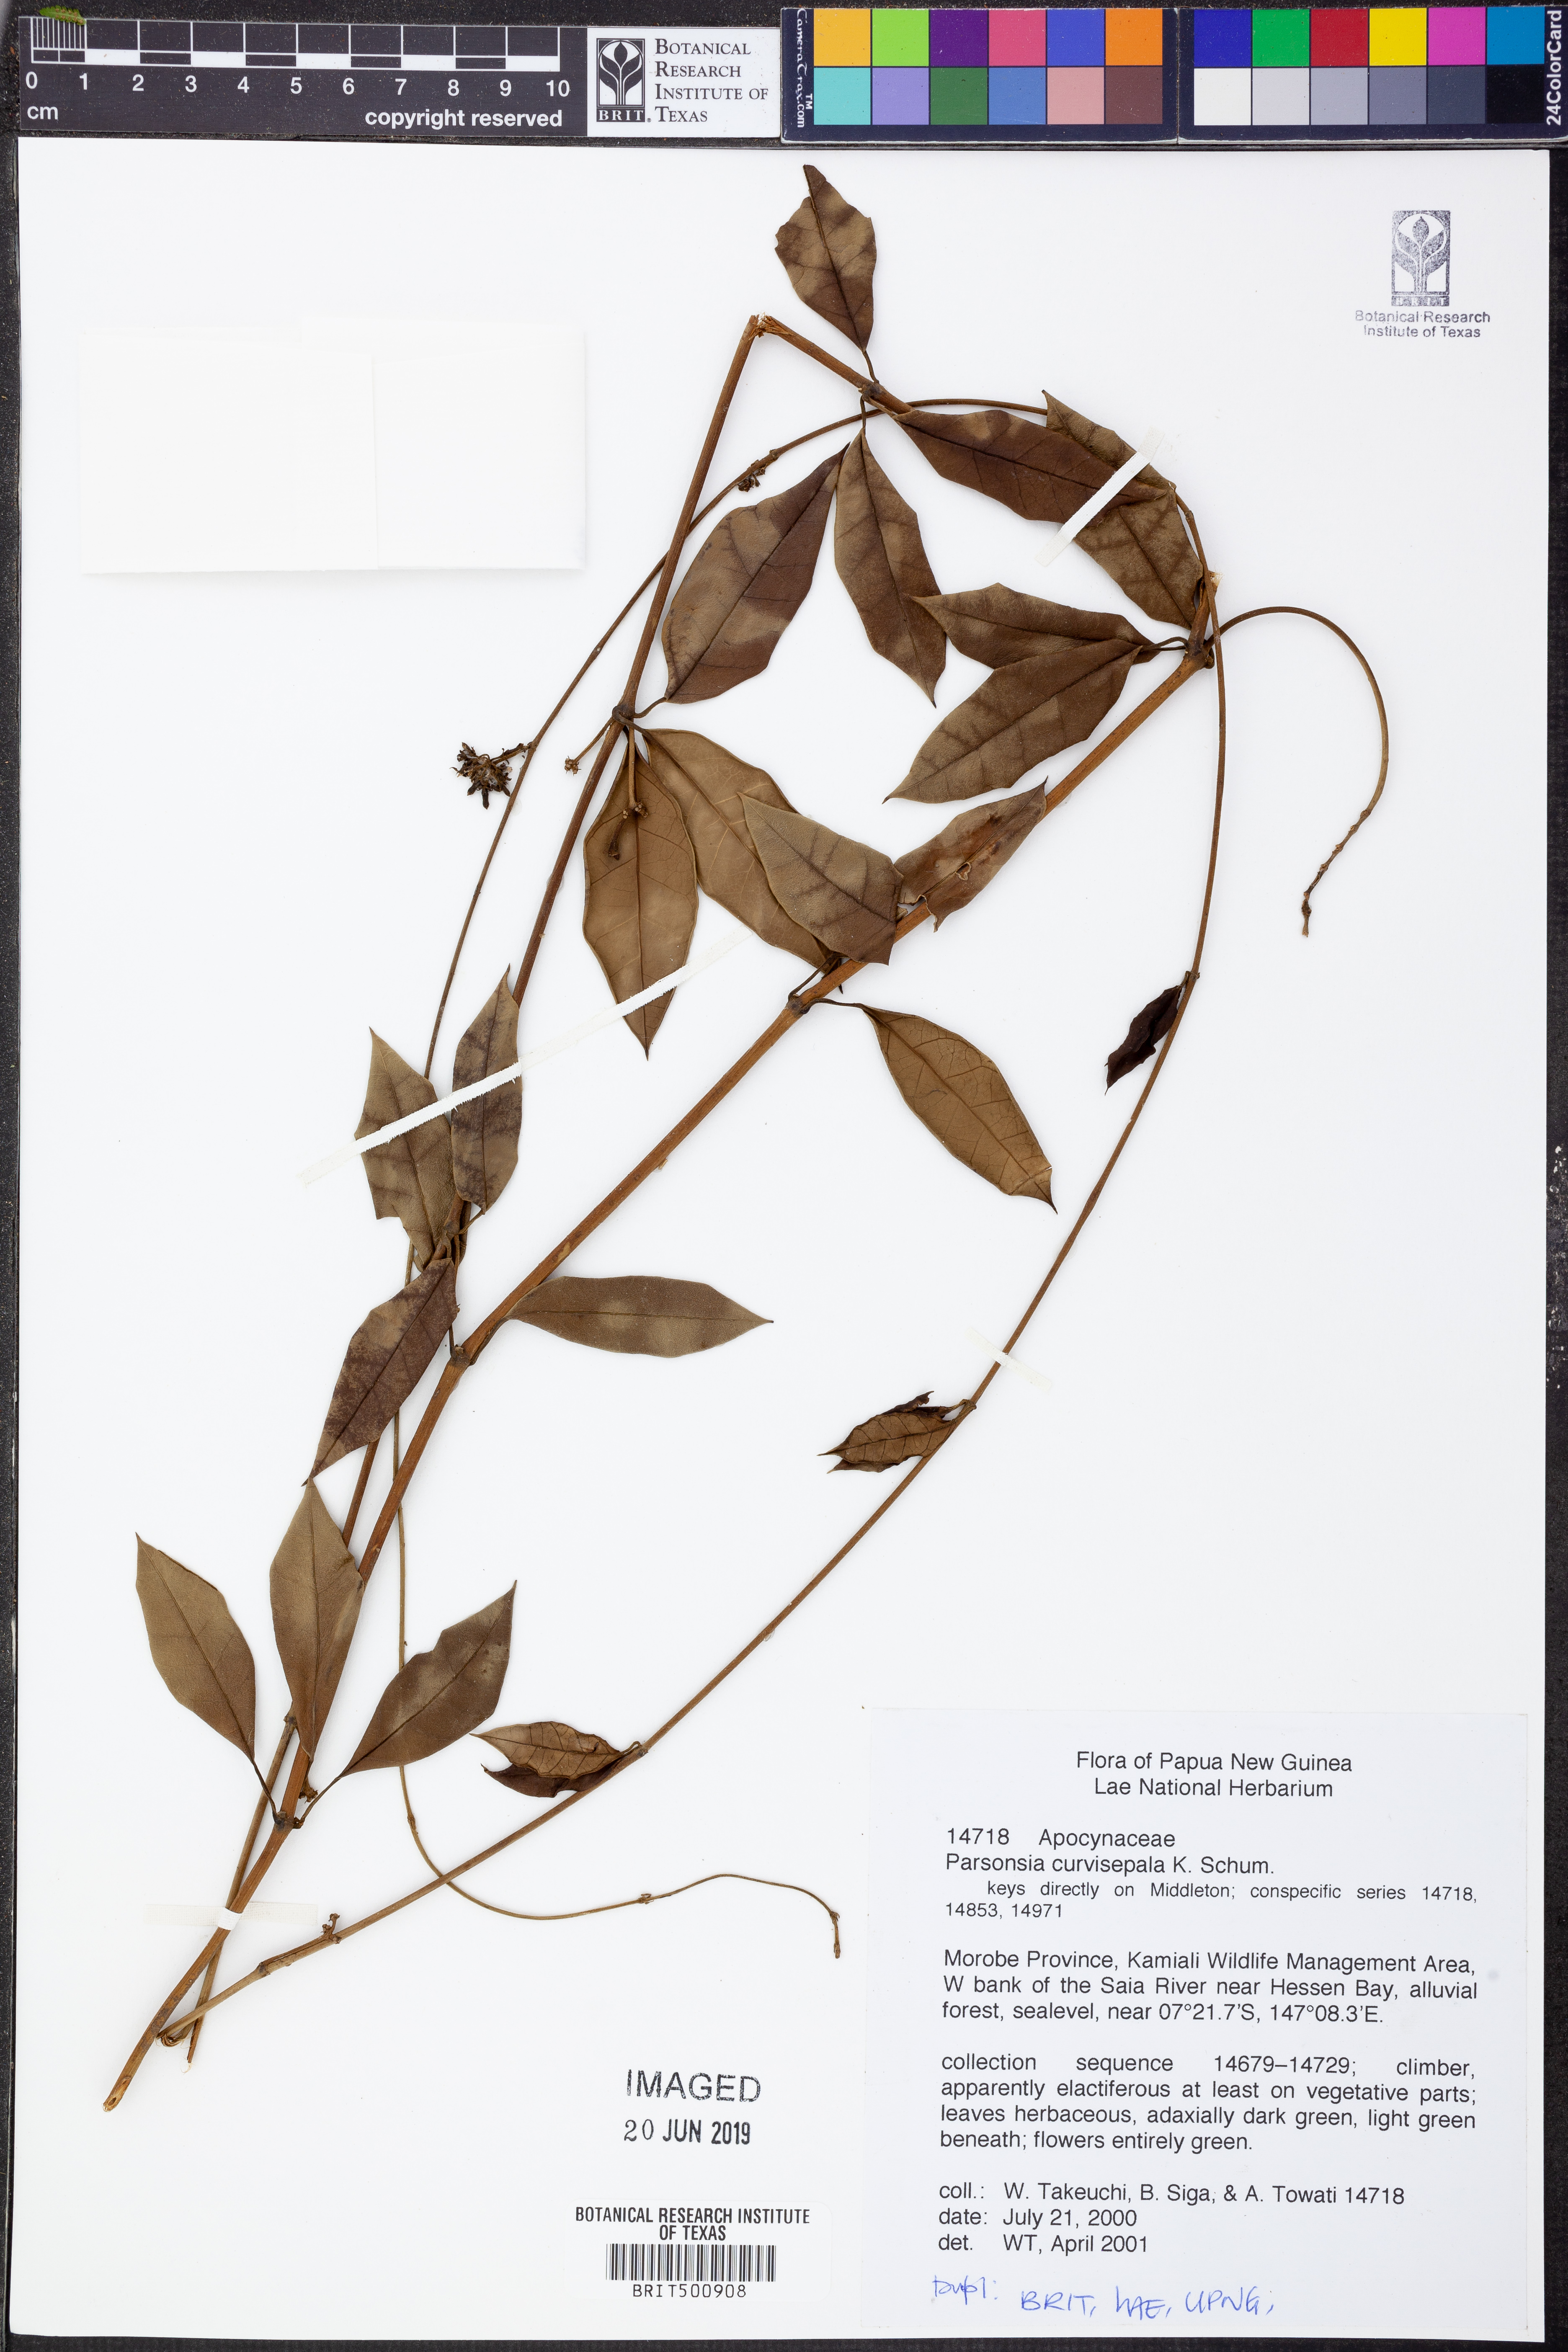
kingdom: Plantae
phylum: Tracheophyta
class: Magnoliopsida
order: Gentianales
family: Apocynaceae
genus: Parsonsia
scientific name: Parsonsia curvisepala
